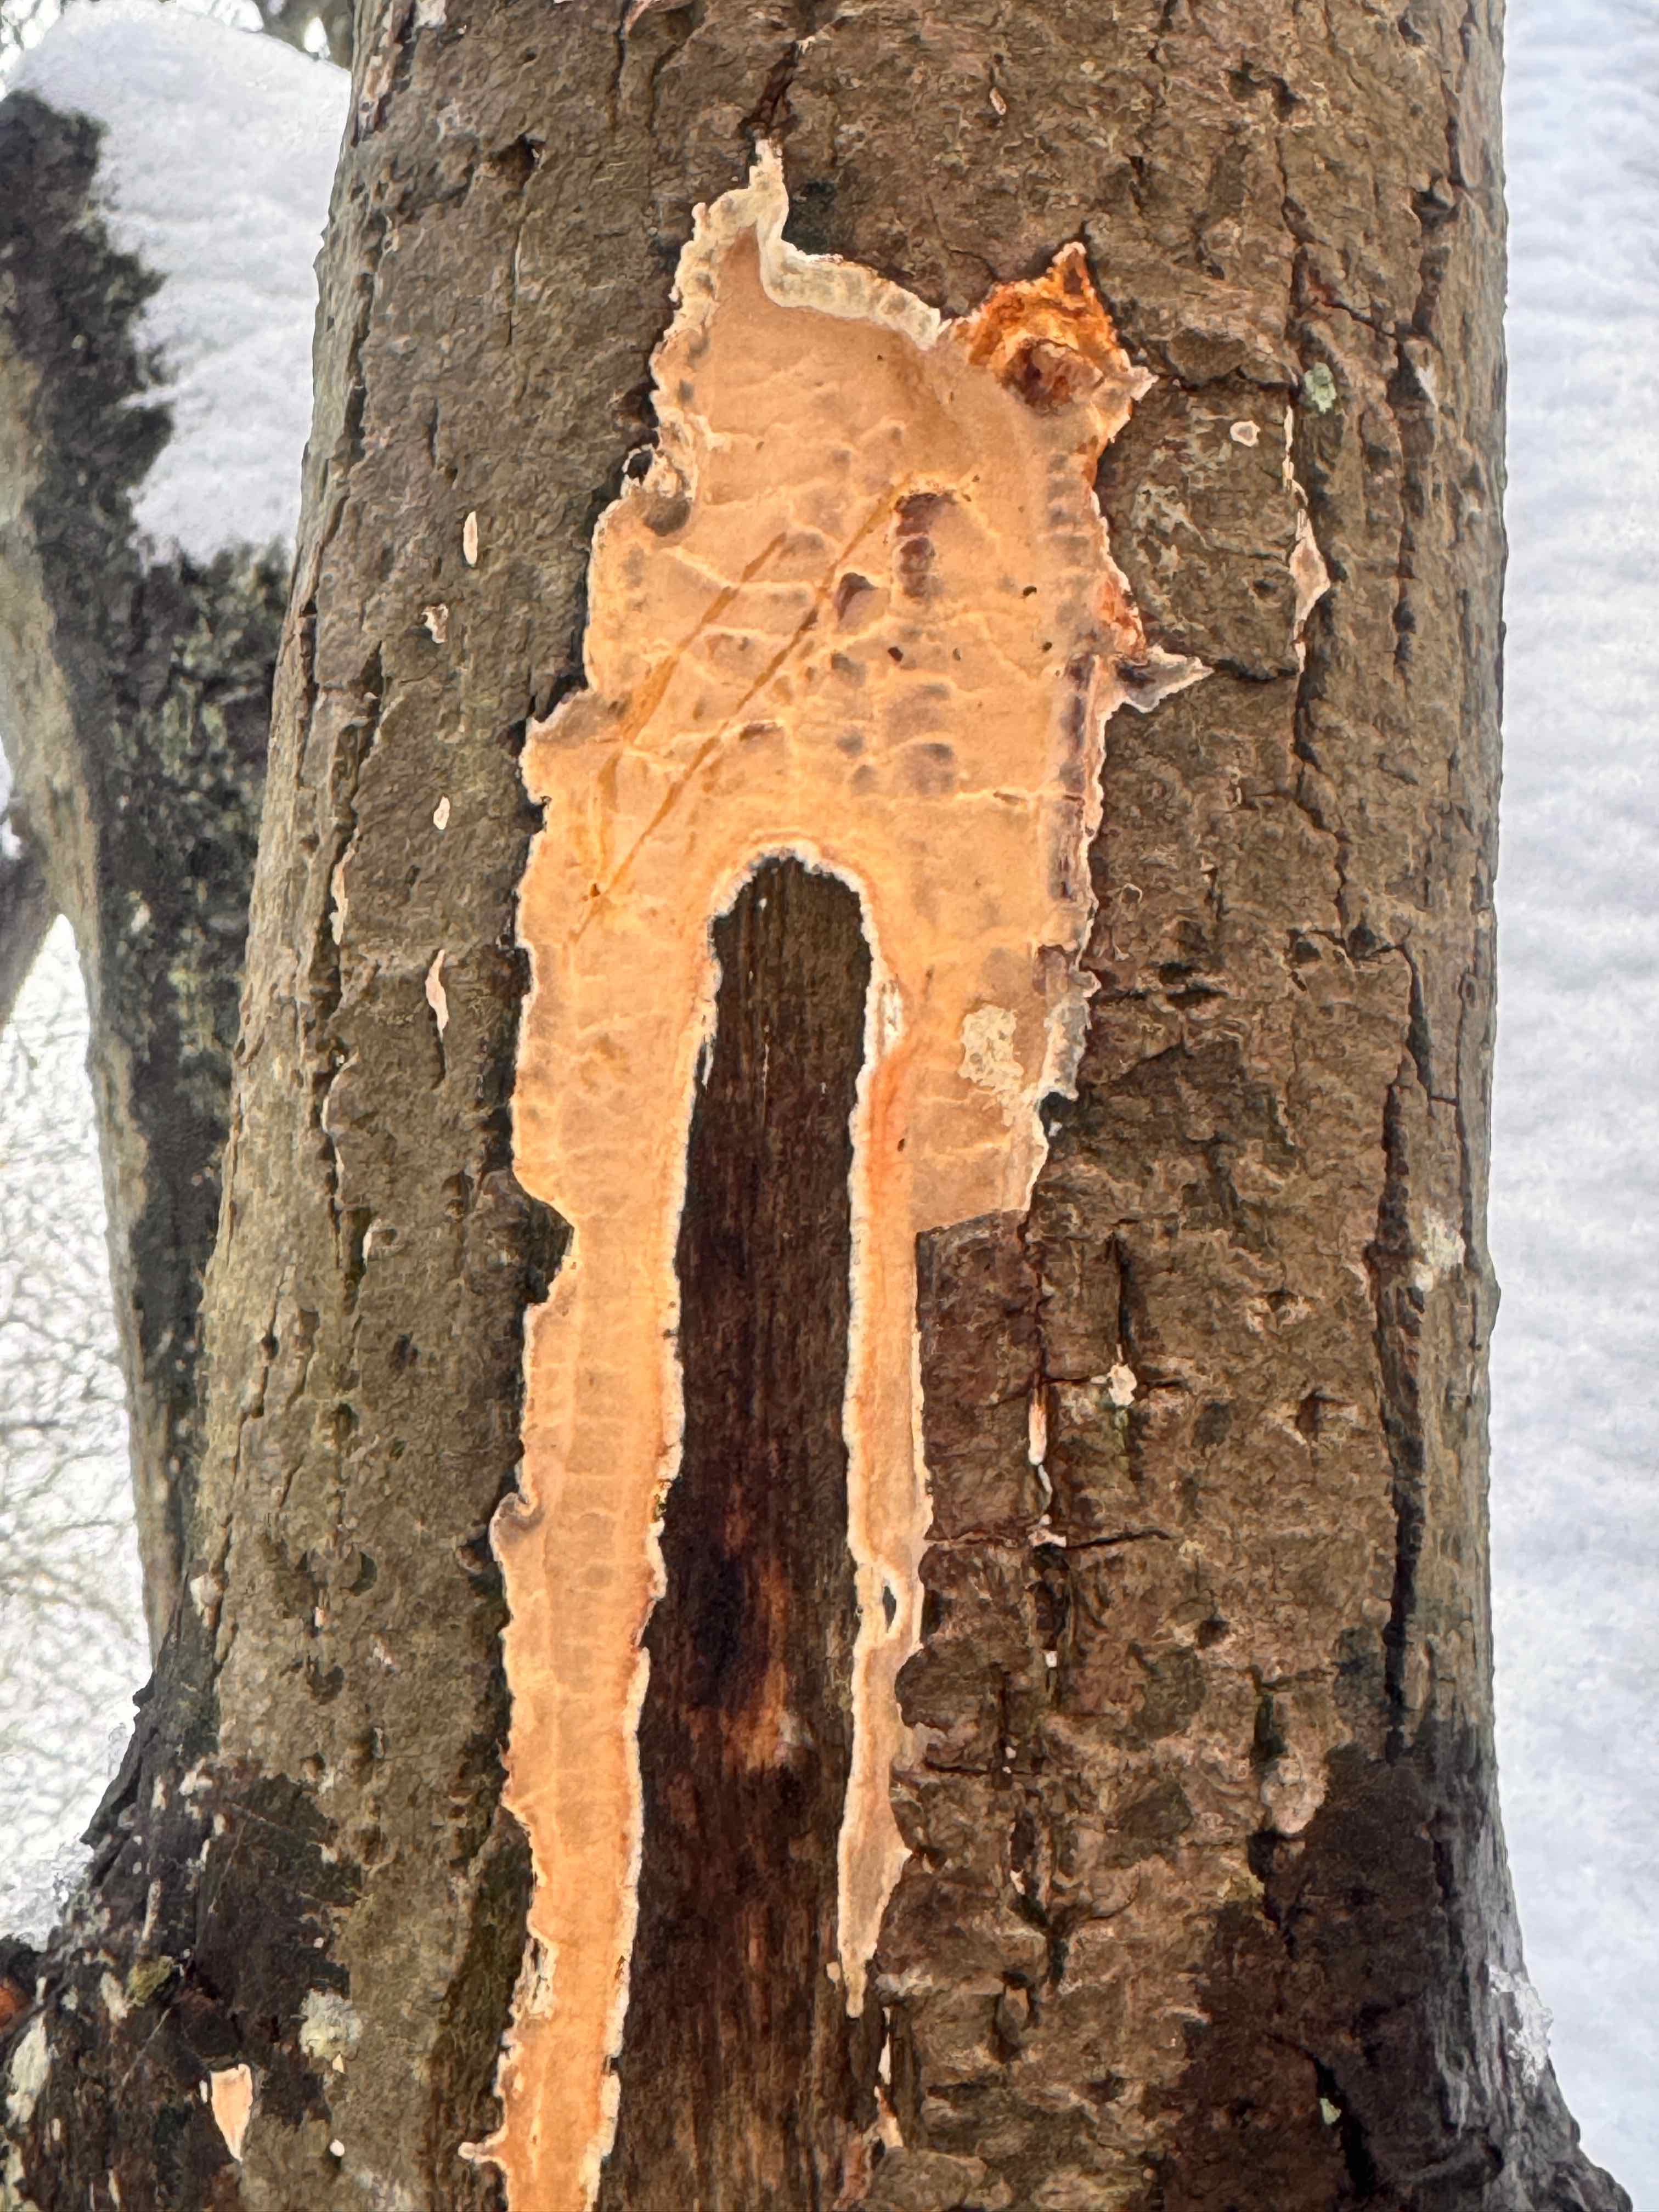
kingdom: Fungi
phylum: Basidiomycota
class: Agaricomycetes
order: Russulales
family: Stereaceae
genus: Stereum
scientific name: Stereum rugosum
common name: rynket lædersvamp
